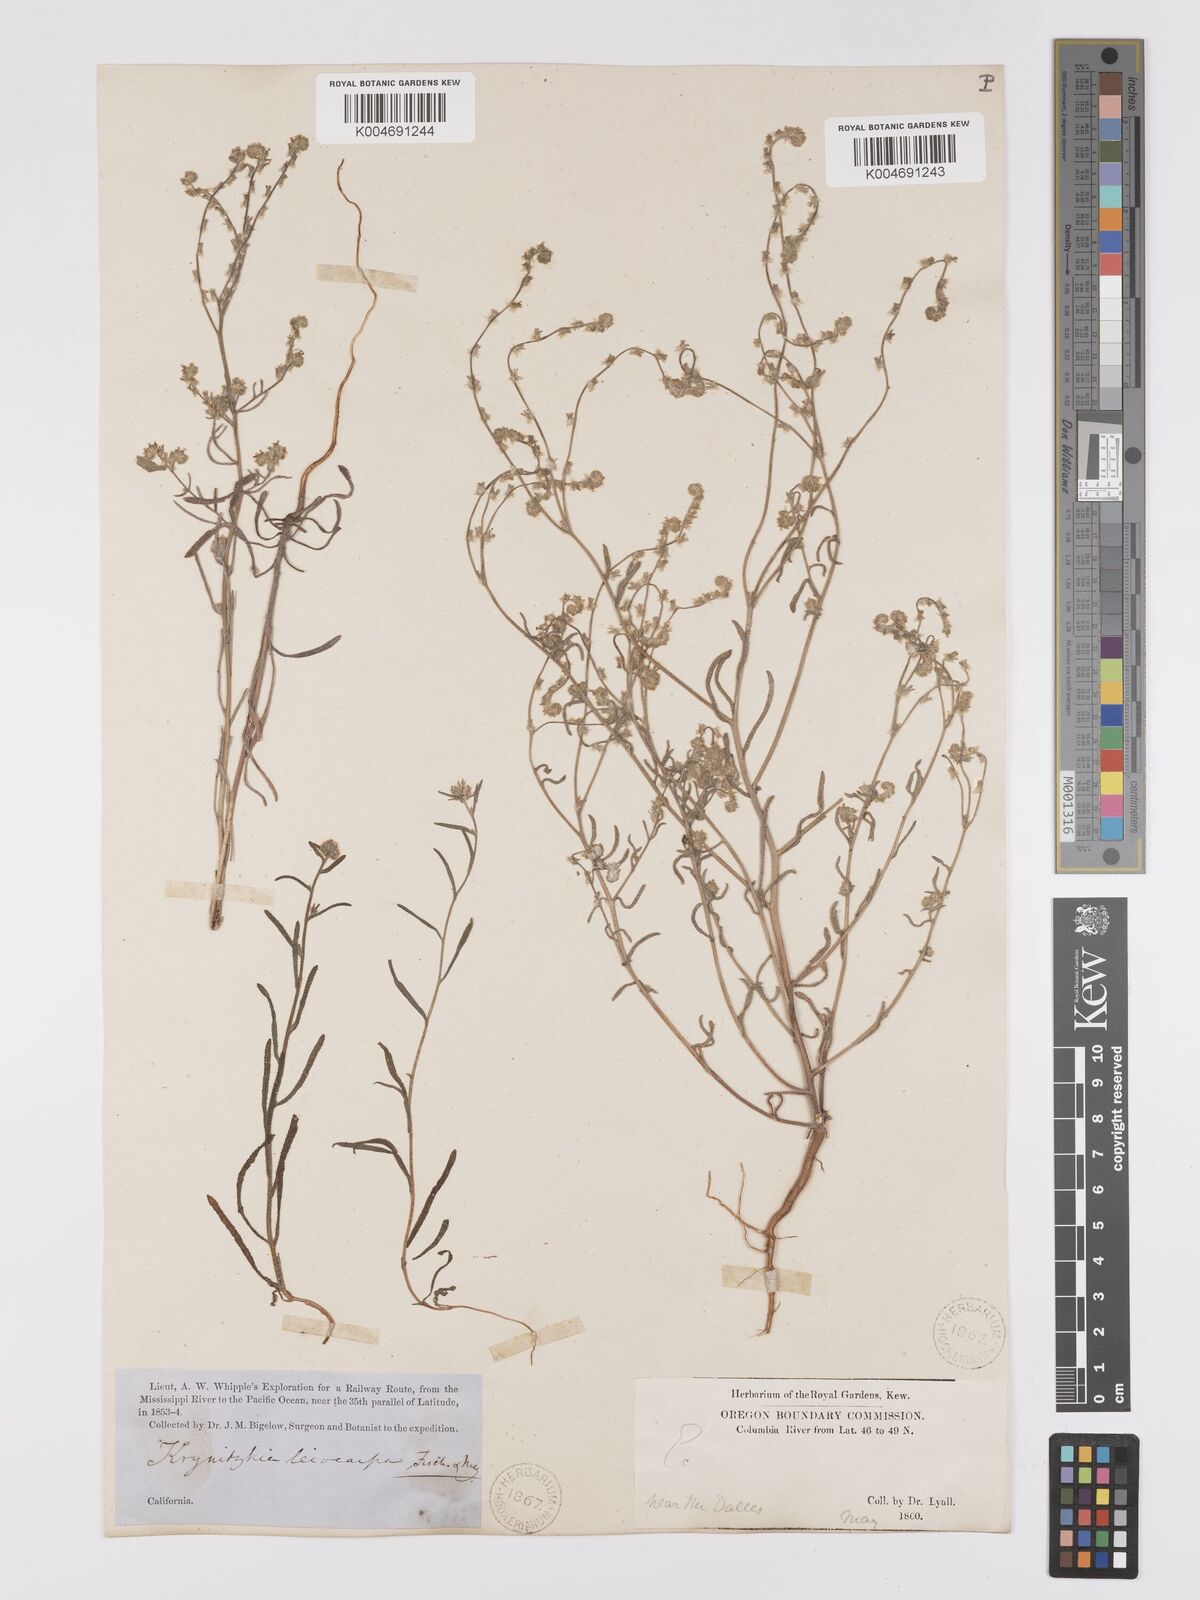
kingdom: Plantae
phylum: Tracheophyta
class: Magnoliopsida
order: Boraginales
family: Boraginaceae
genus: Cryptantha
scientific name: Cryptantha flaccida
